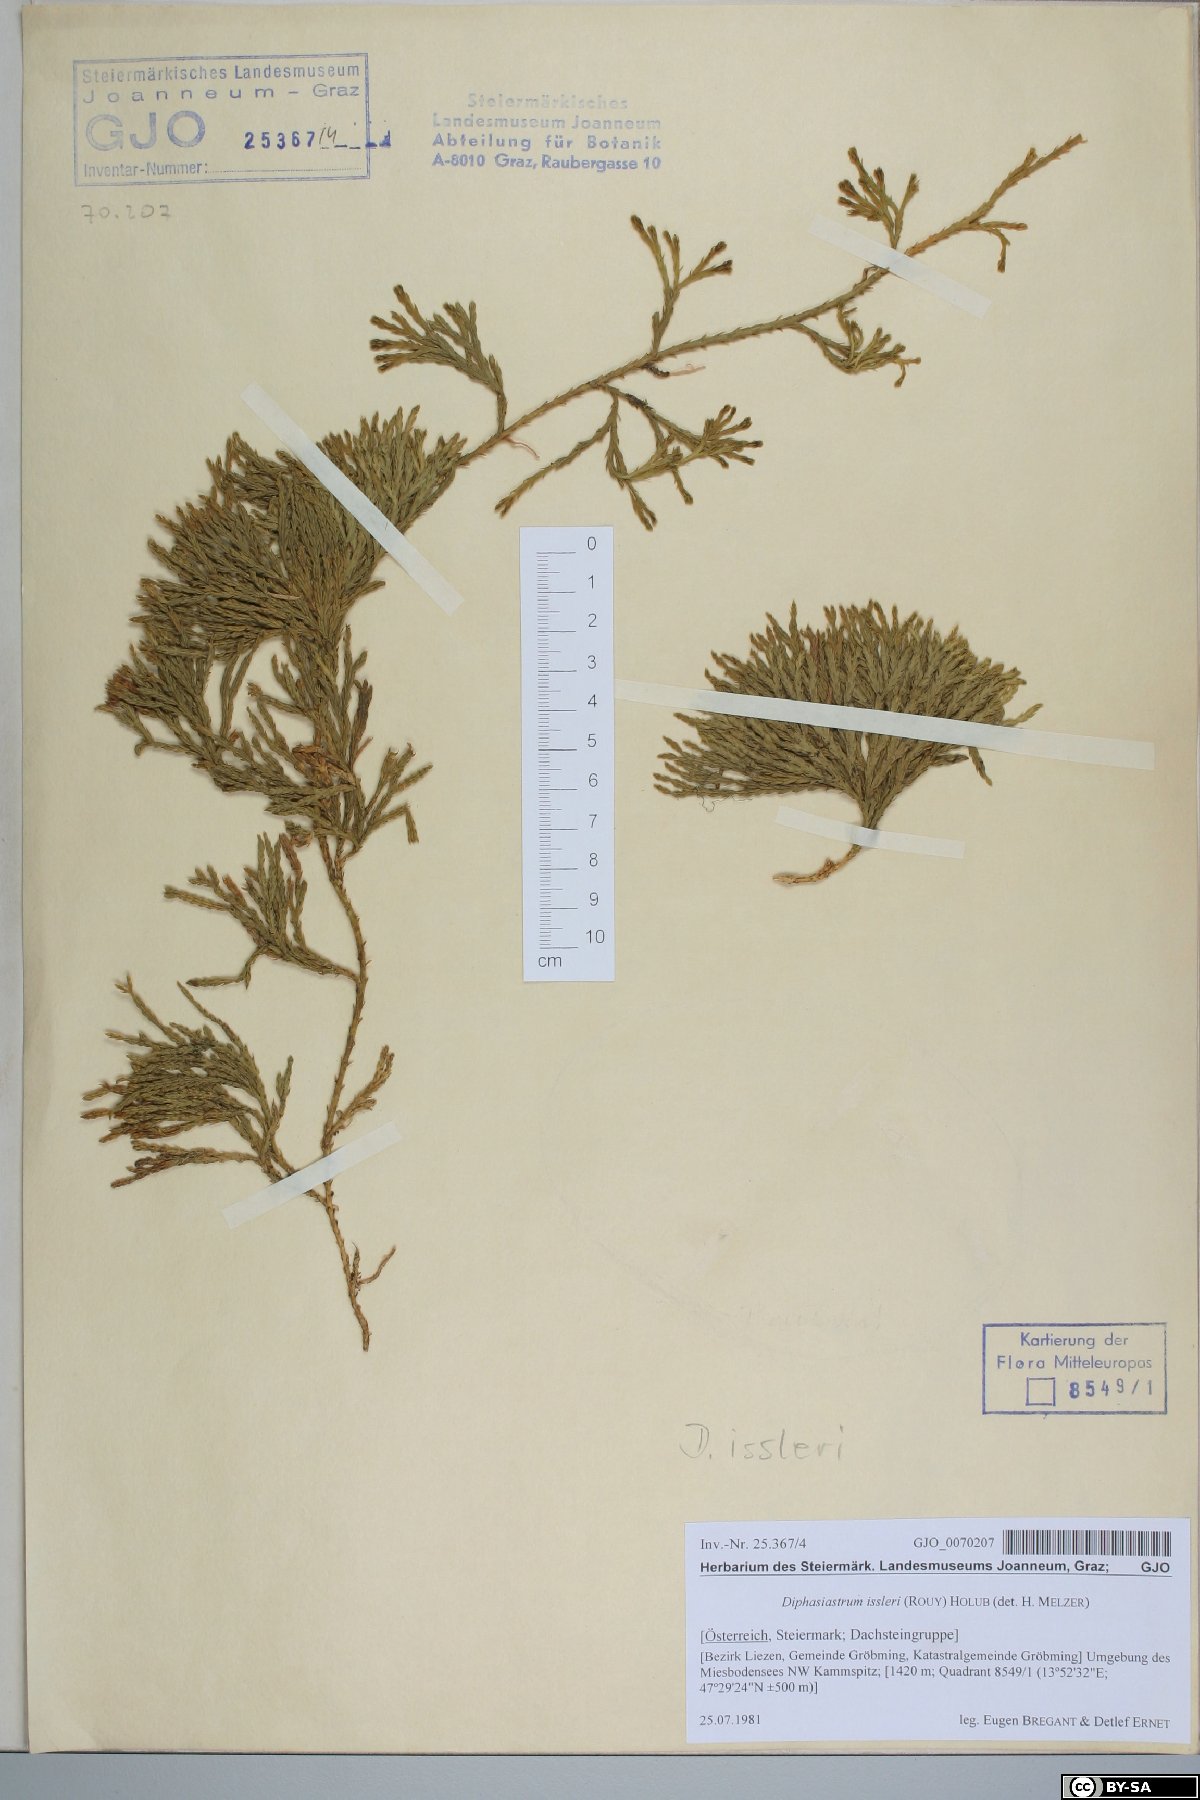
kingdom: Plantae
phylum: Tracheophyta
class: Lycopodiopsida
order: Lycopodiales
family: Lycopodiaceae
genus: Diphasiastrum
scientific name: Diphasiastrum issleri
